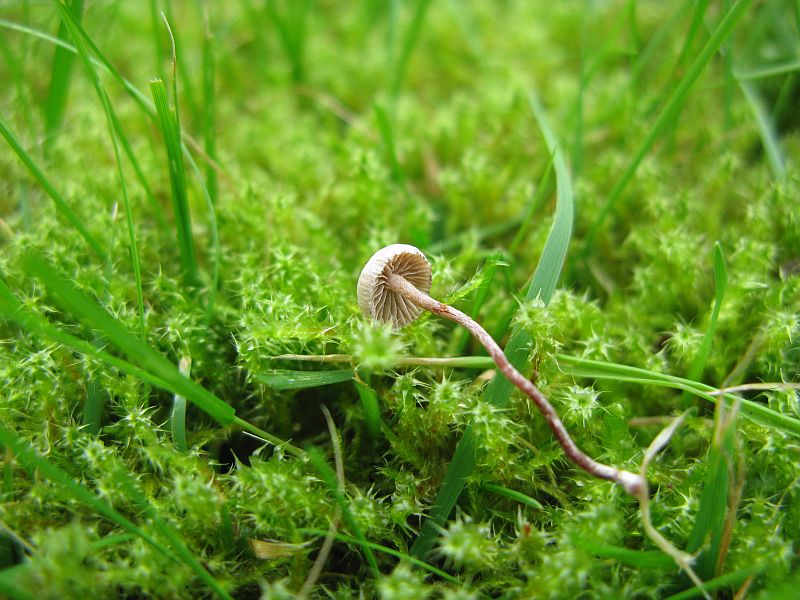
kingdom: Fungi
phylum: Basidiomycota
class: Agaricomycetes
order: Agaricales
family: Strophariaceae
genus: Deconica
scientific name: Deconica inquilina
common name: græs-stråhat
